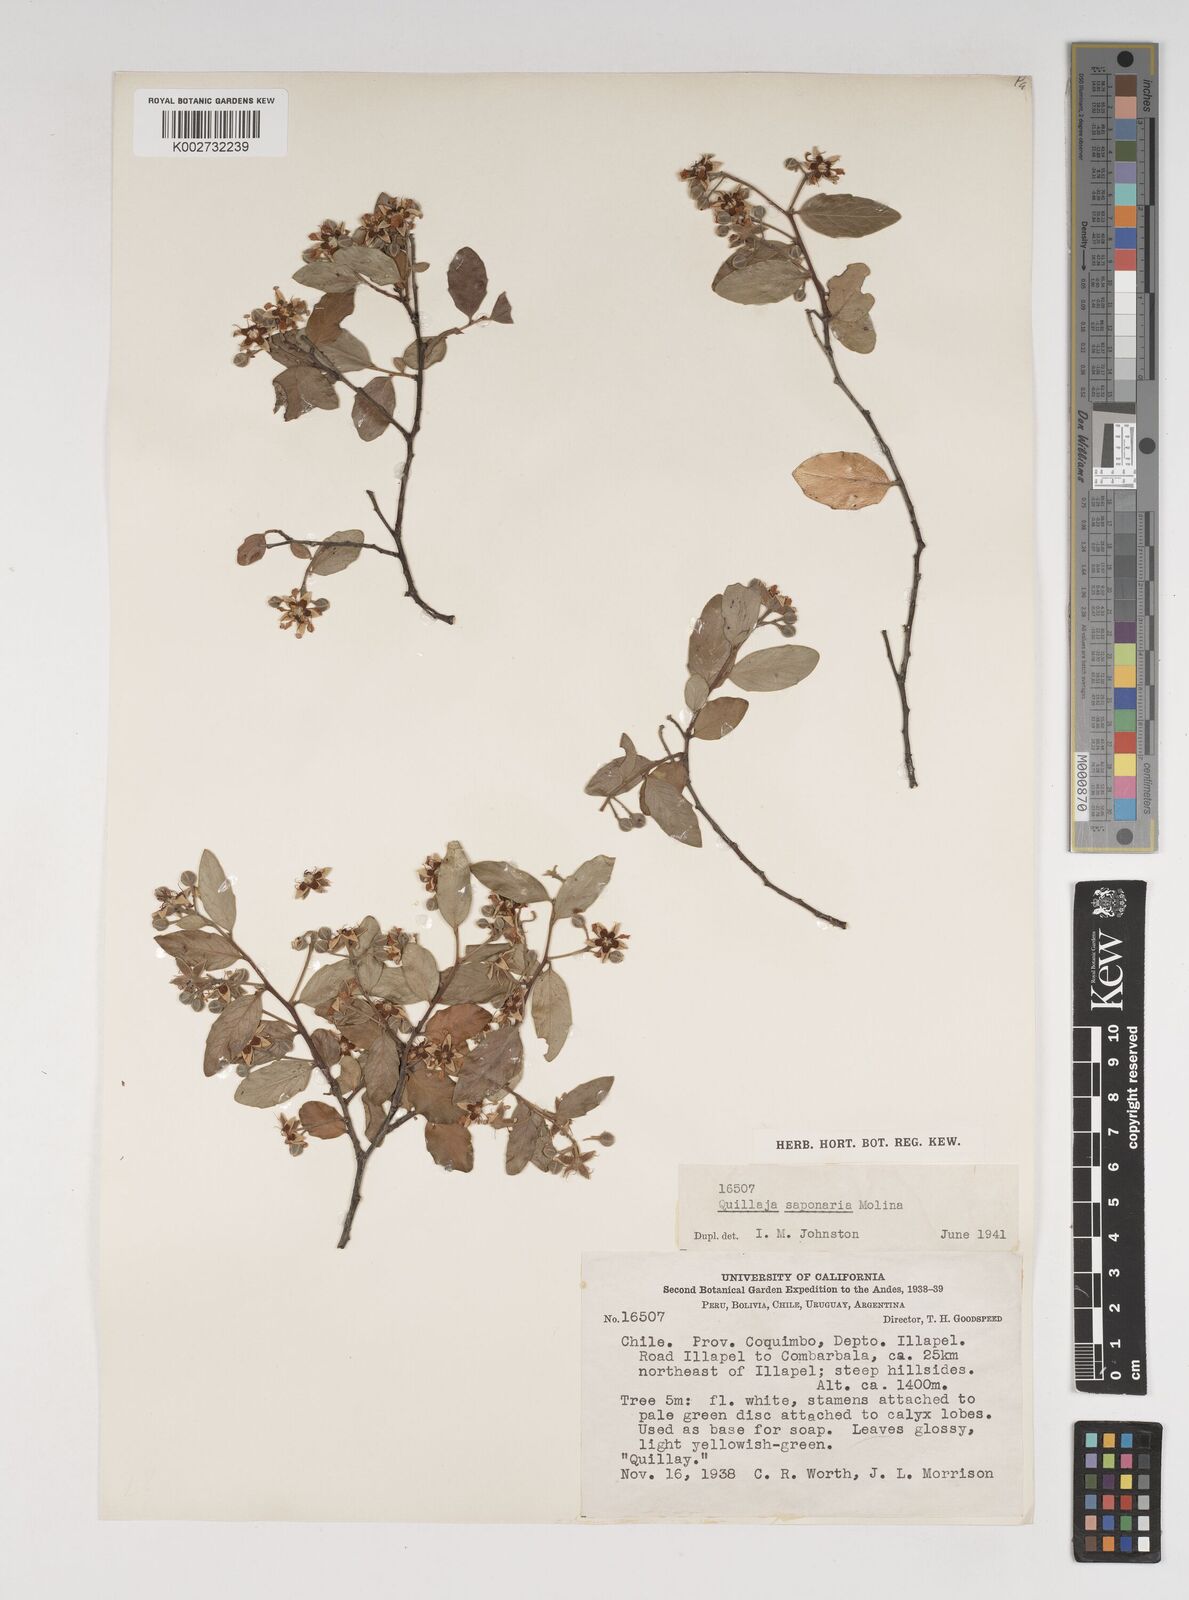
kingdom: Plantae
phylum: Tracheophyta
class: Magnoliopsida
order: Fabales
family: Quillajaceae
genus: Quillaja
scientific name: Quillaja saponaria
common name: Murillo's-bark
